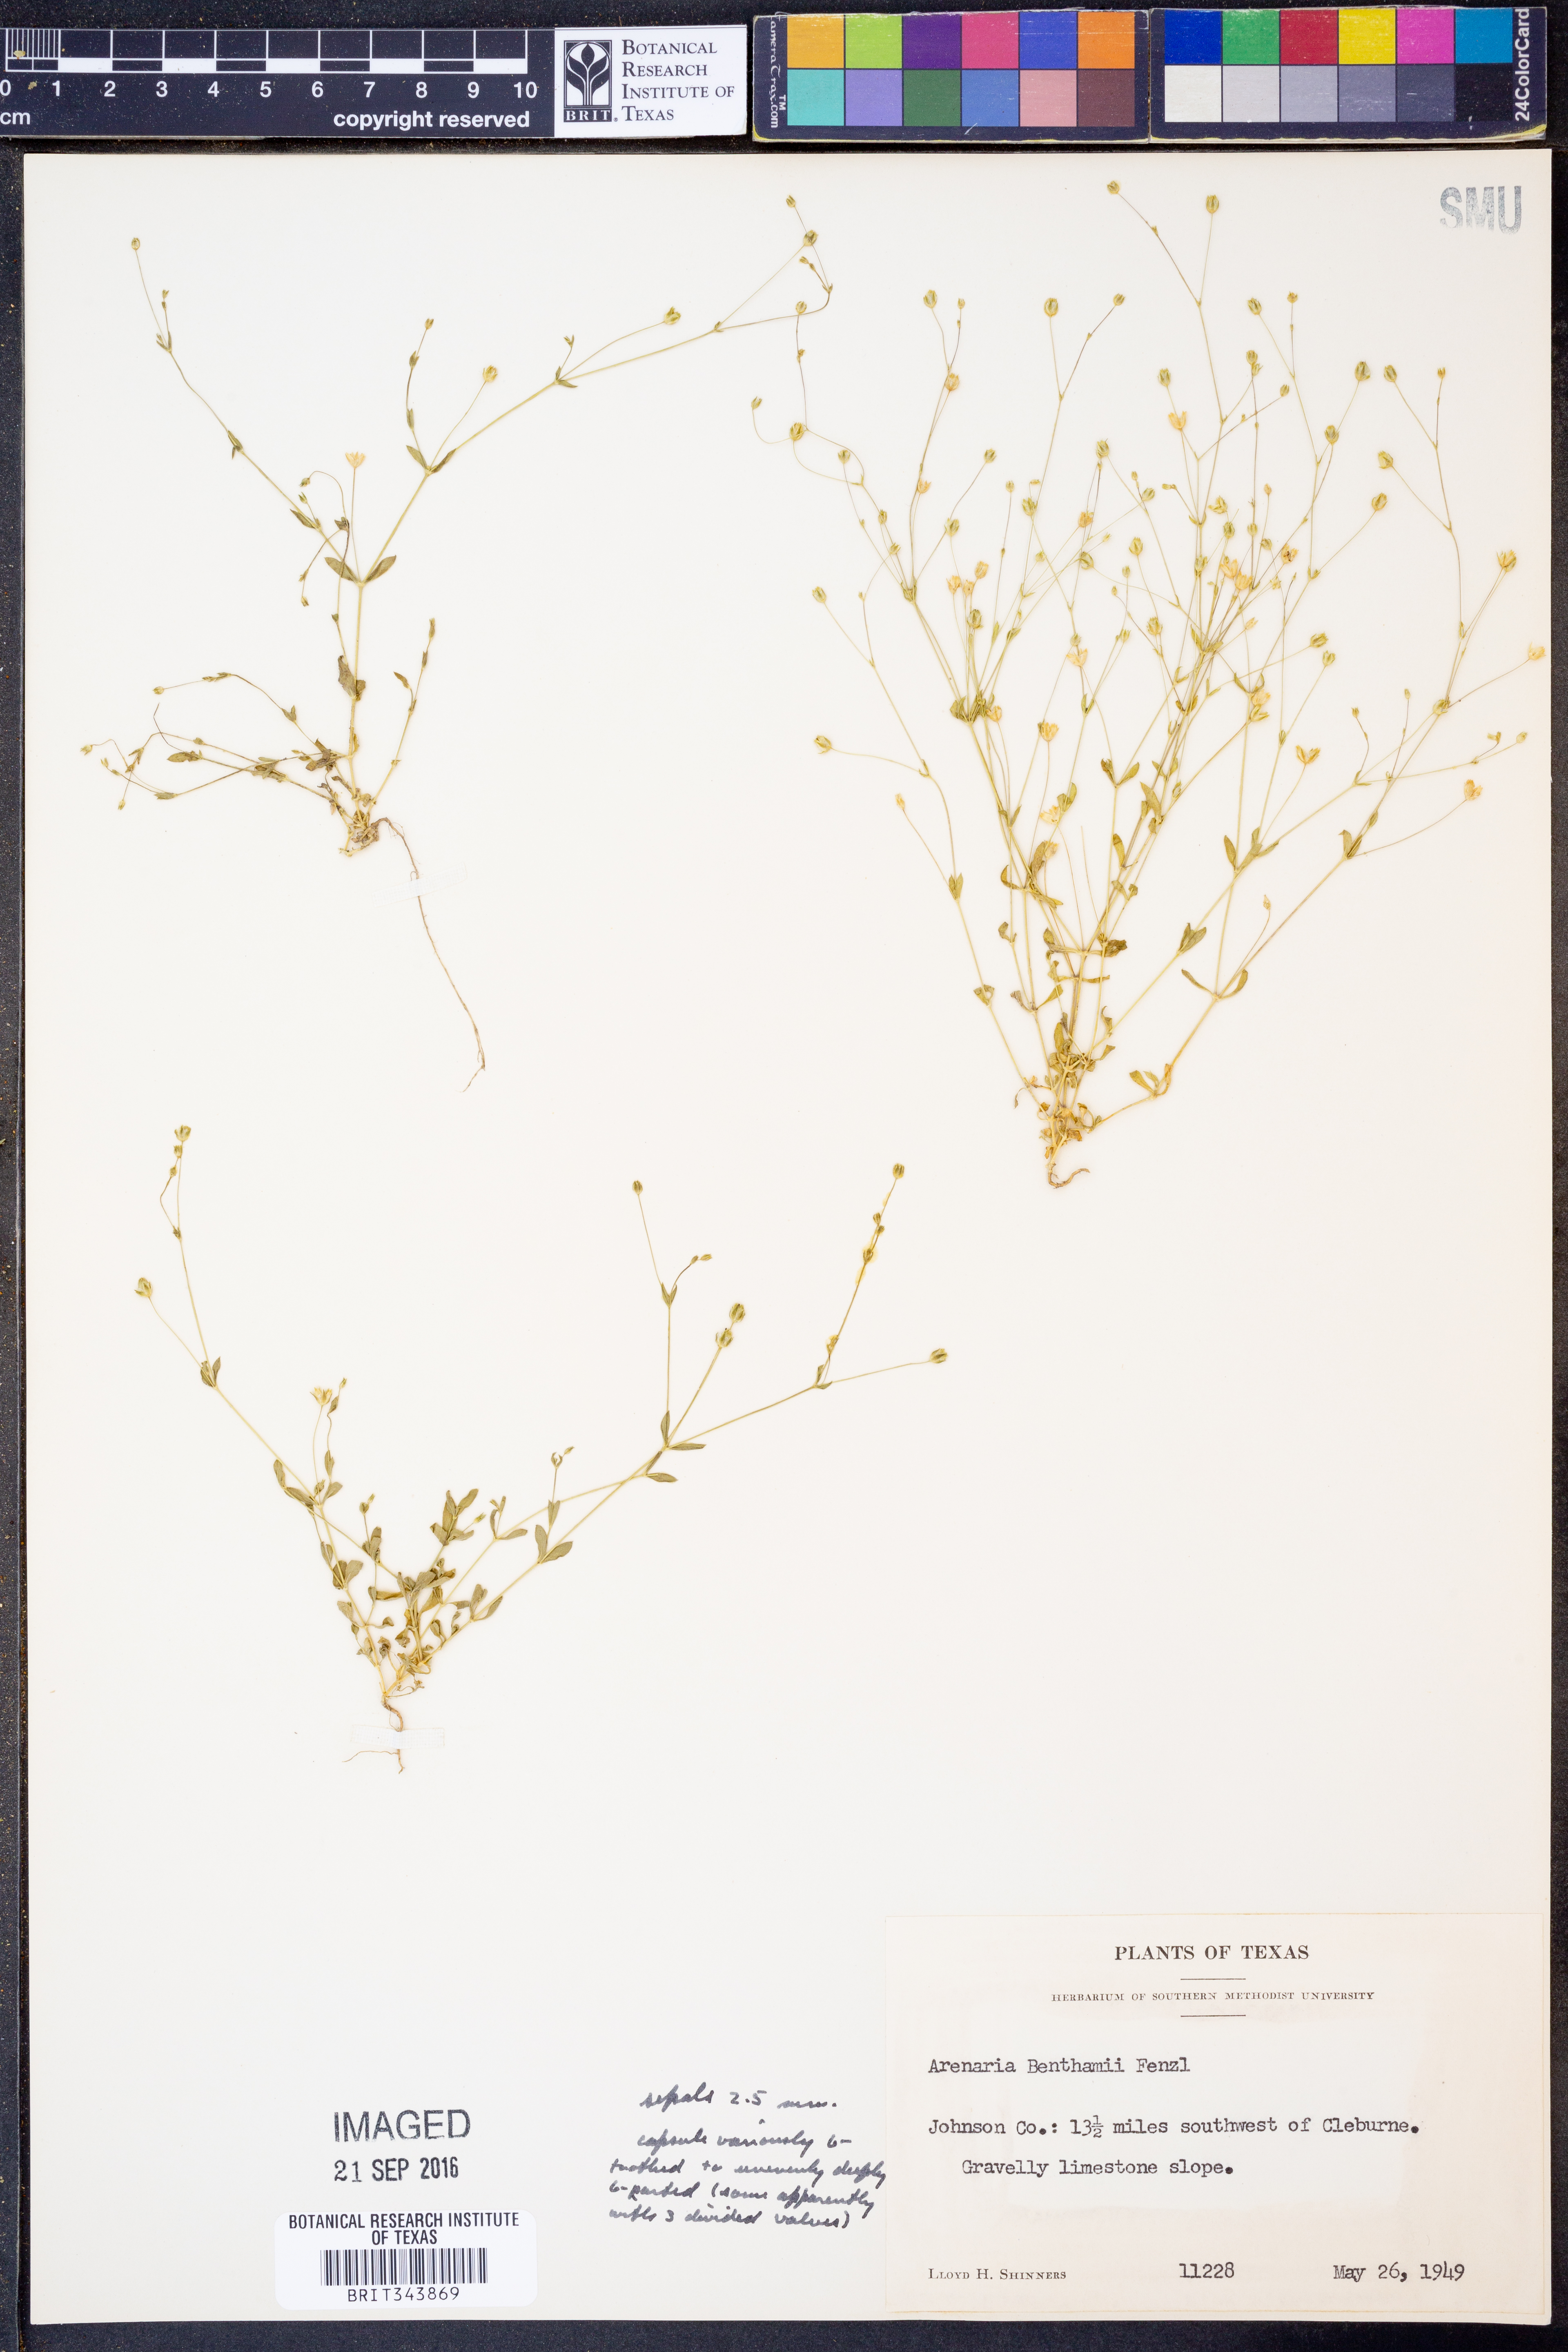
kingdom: Plantae
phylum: Tracheophyta
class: Magnoliopsida
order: Caryophyllales
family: Caryophyllaceae
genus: Arenaria
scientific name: Arenaria benthamii
